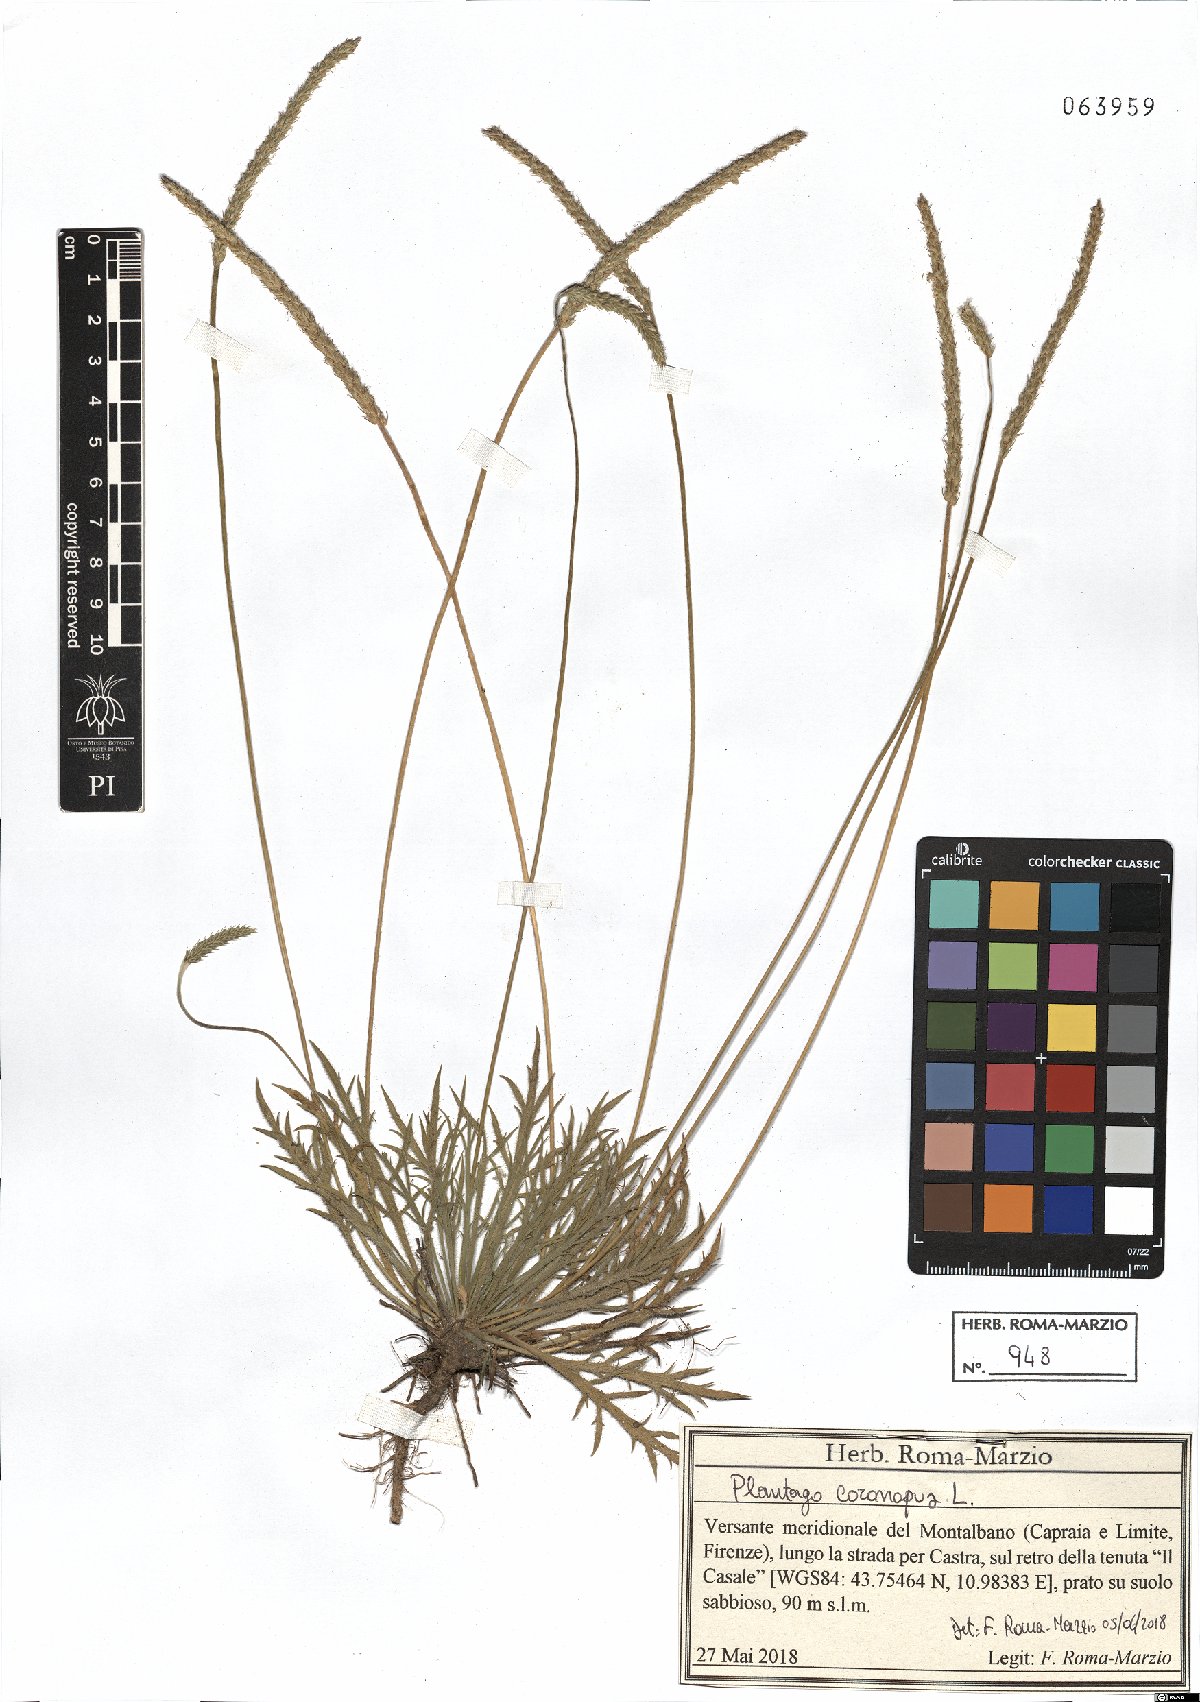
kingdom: Plantae
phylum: Tracheophyta
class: Magnoliopsida
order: Lamiales
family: Plantaginaceae
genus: Plantago
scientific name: Plantago coronopus
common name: Buck's-horn plantain
